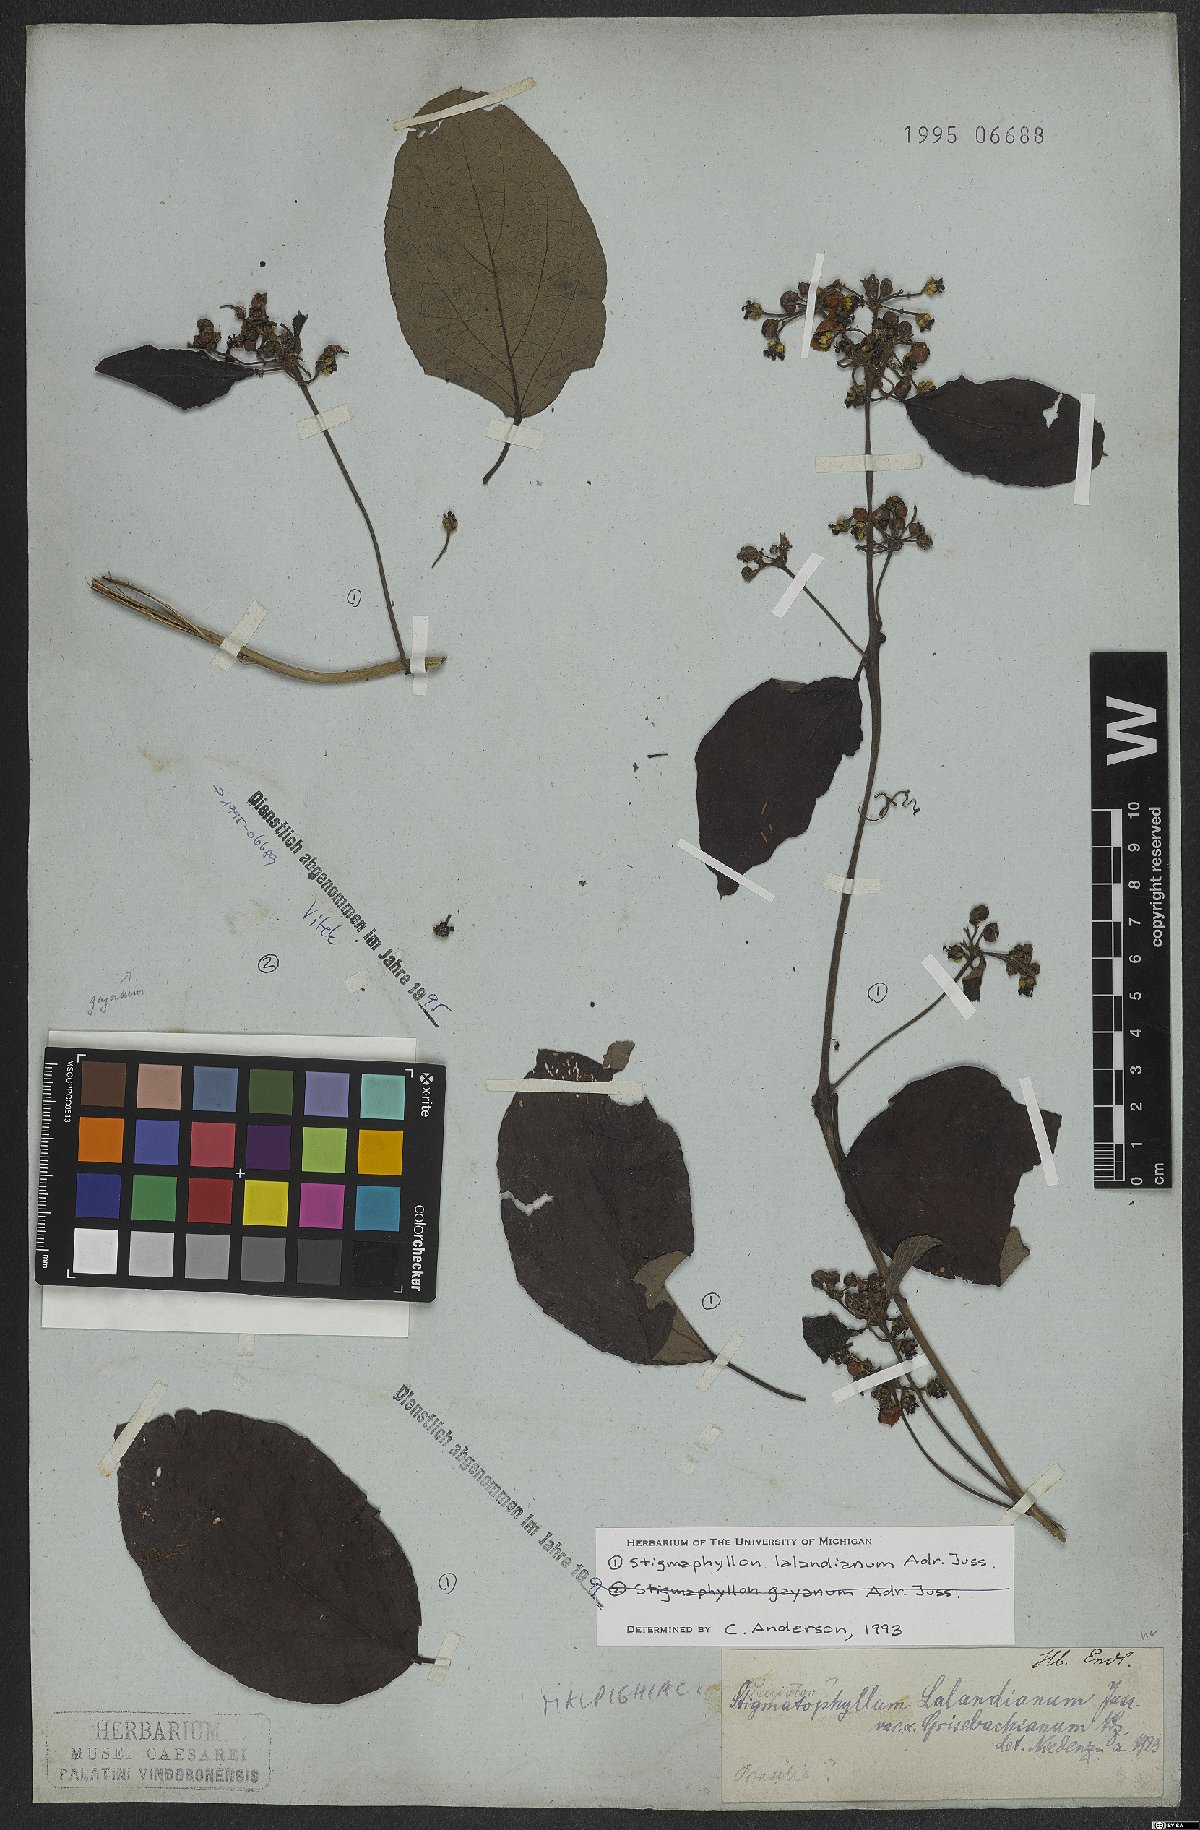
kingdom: Plantae
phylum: Tracheophyta
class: Magnoliopsida
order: Malpighiales
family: Malpighiaceae
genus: Stigmaphyllon
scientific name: Stigmaphyllon lalandianum
